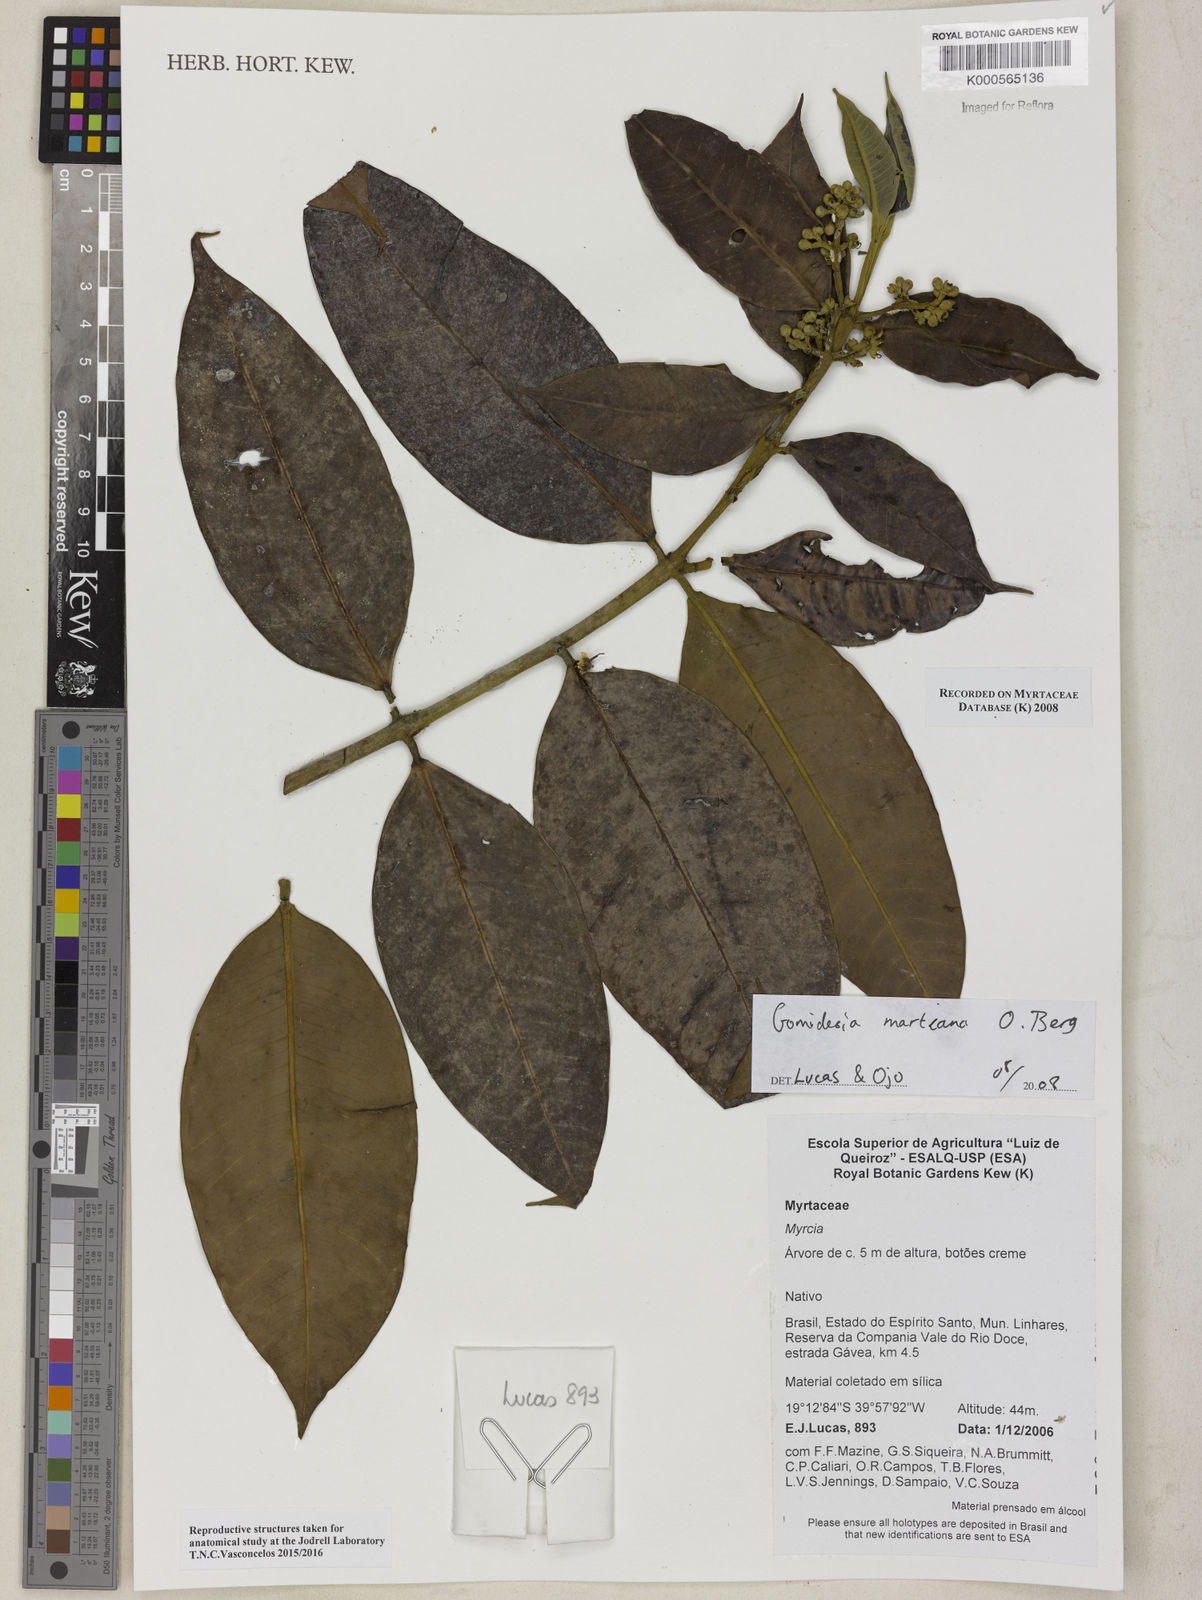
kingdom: Plantae
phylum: Tracheophyta
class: Magnoliopsida
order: Myrtales
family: Myrtaceae
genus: Myrcia
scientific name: Myrcia vittoriana
